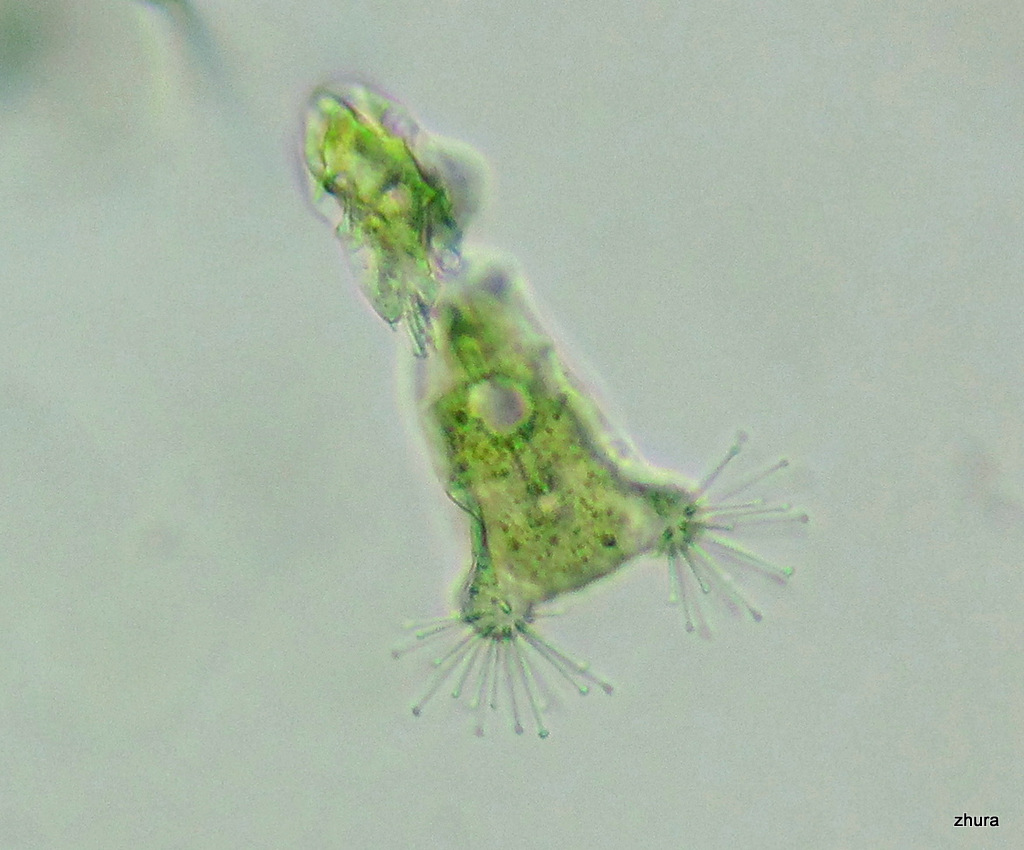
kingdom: Chromista
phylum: Ciliophora
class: Kinetofragminophora
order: Suctorida
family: Acinetidae
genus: Acineta
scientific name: Acineta tuberosa
